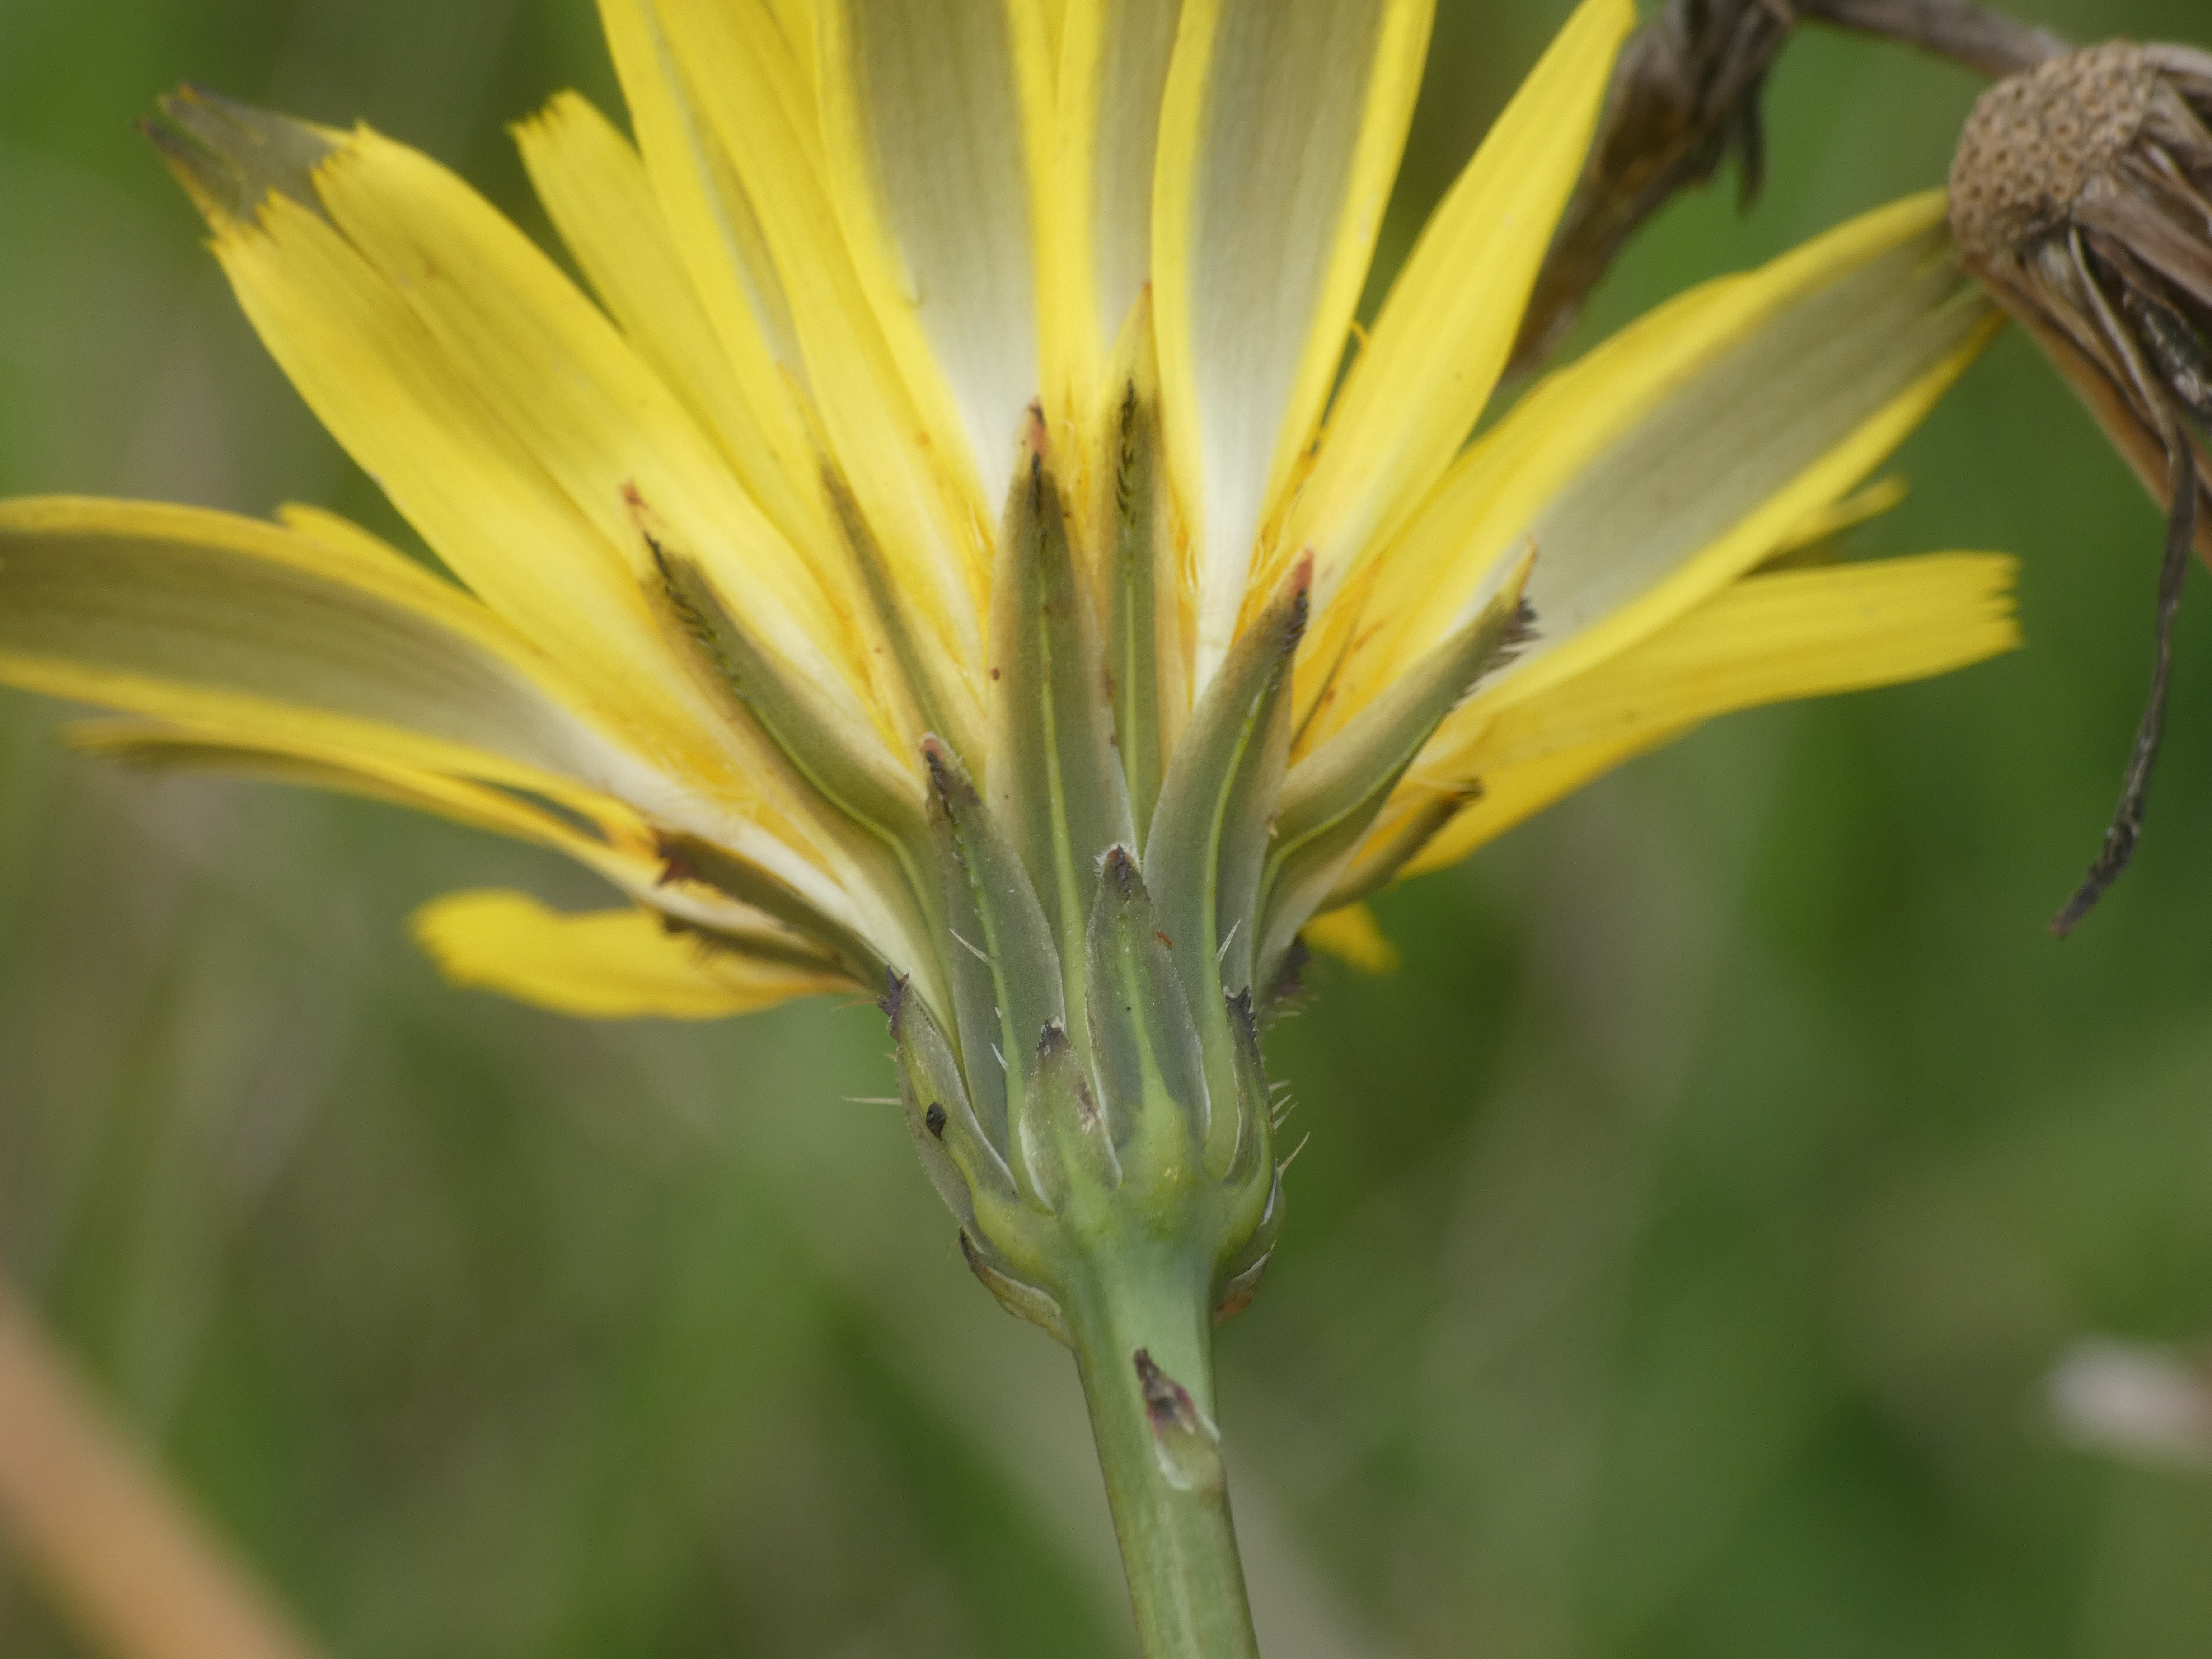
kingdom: Plantae
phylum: Tracheophyta
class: Magnoliopsida
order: Asterales
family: Asteraceae
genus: Hypochaeris
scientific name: Hypochaeris radicata
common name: Almindelig kongepen
